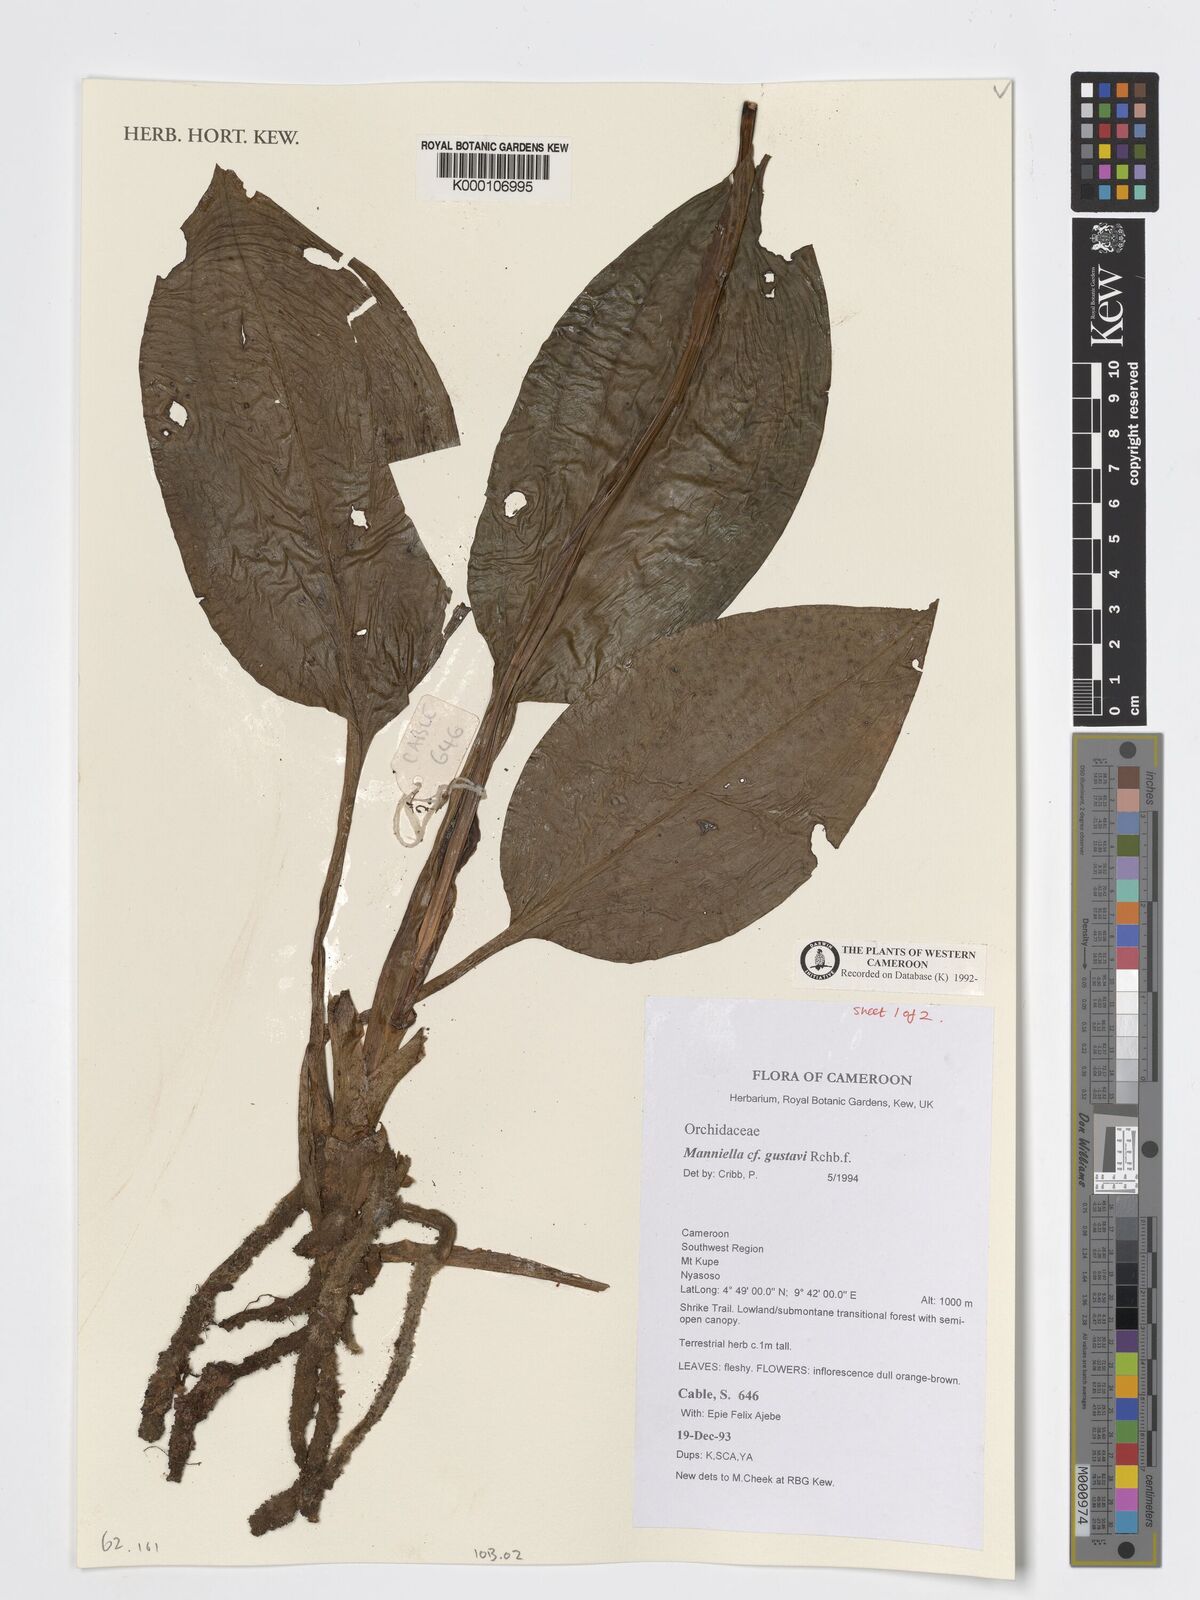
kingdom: Plantae
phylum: Tracheophyta
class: Liliopsida
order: Asparagales
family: Orchidaceae
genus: Manniella
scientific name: Manniella gustavi
